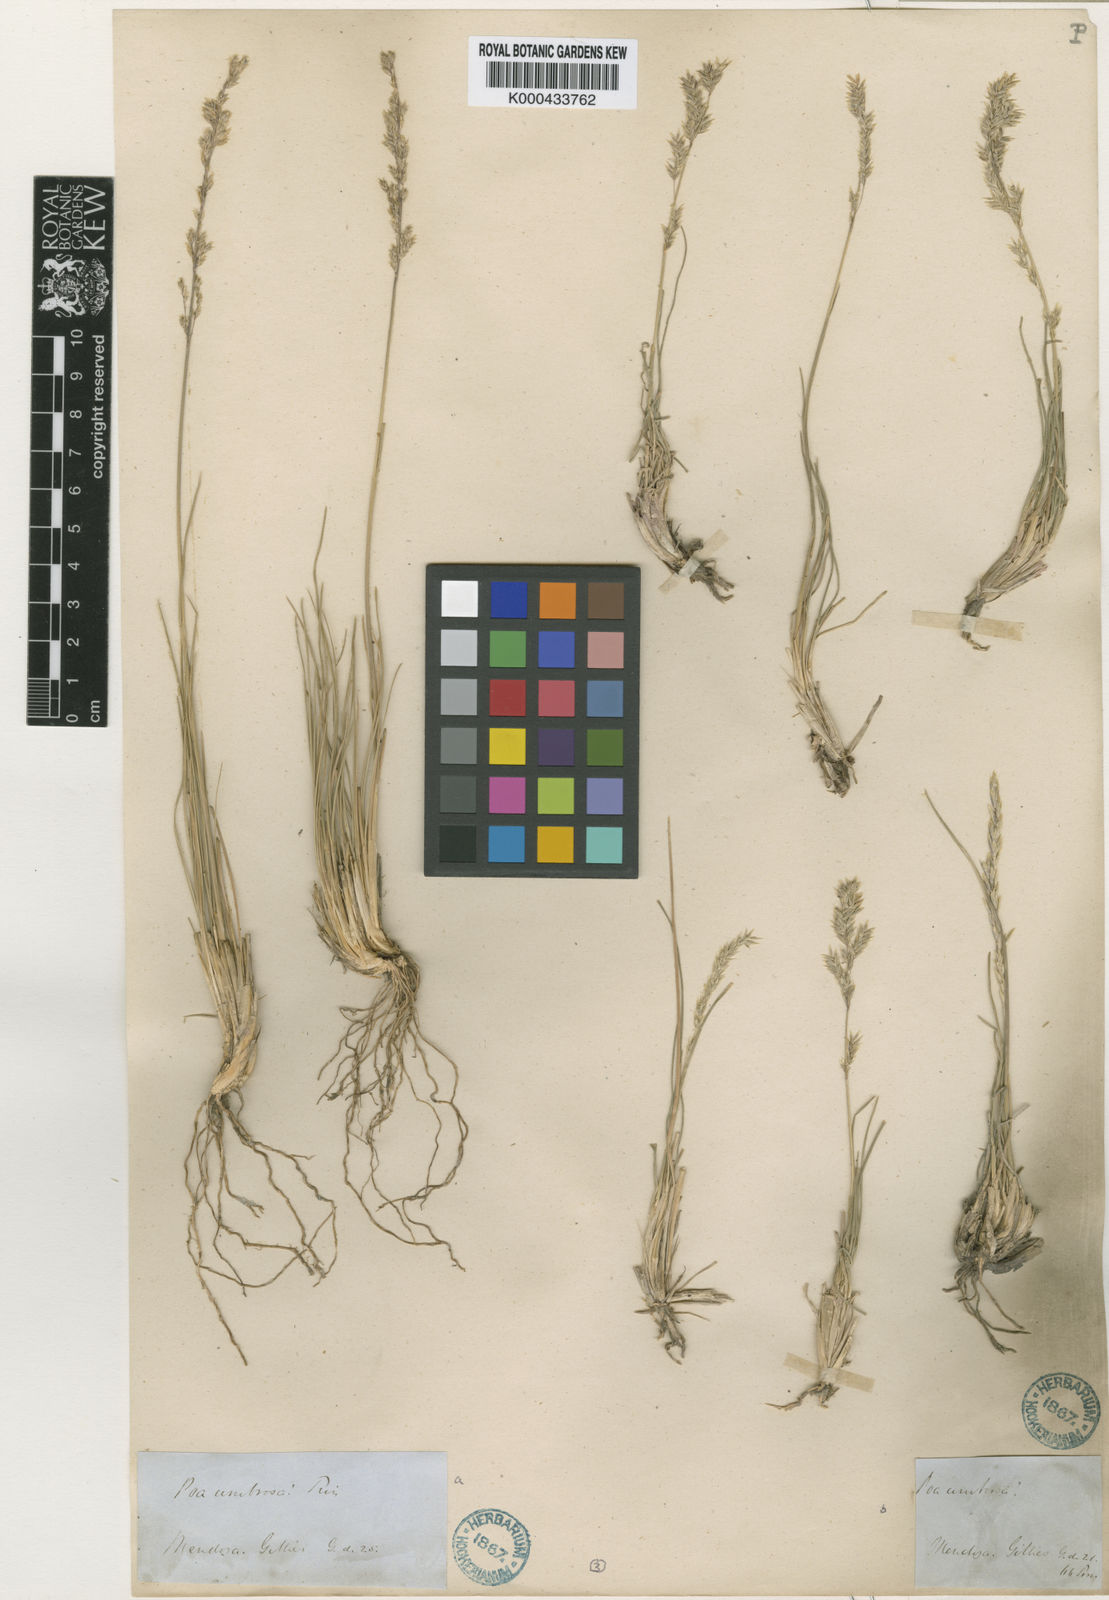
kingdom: Plantae
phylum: Tracheophyta
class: Liliopsida
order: Poales
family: Poaceae
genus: Poa
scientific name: Poa resinulosa
